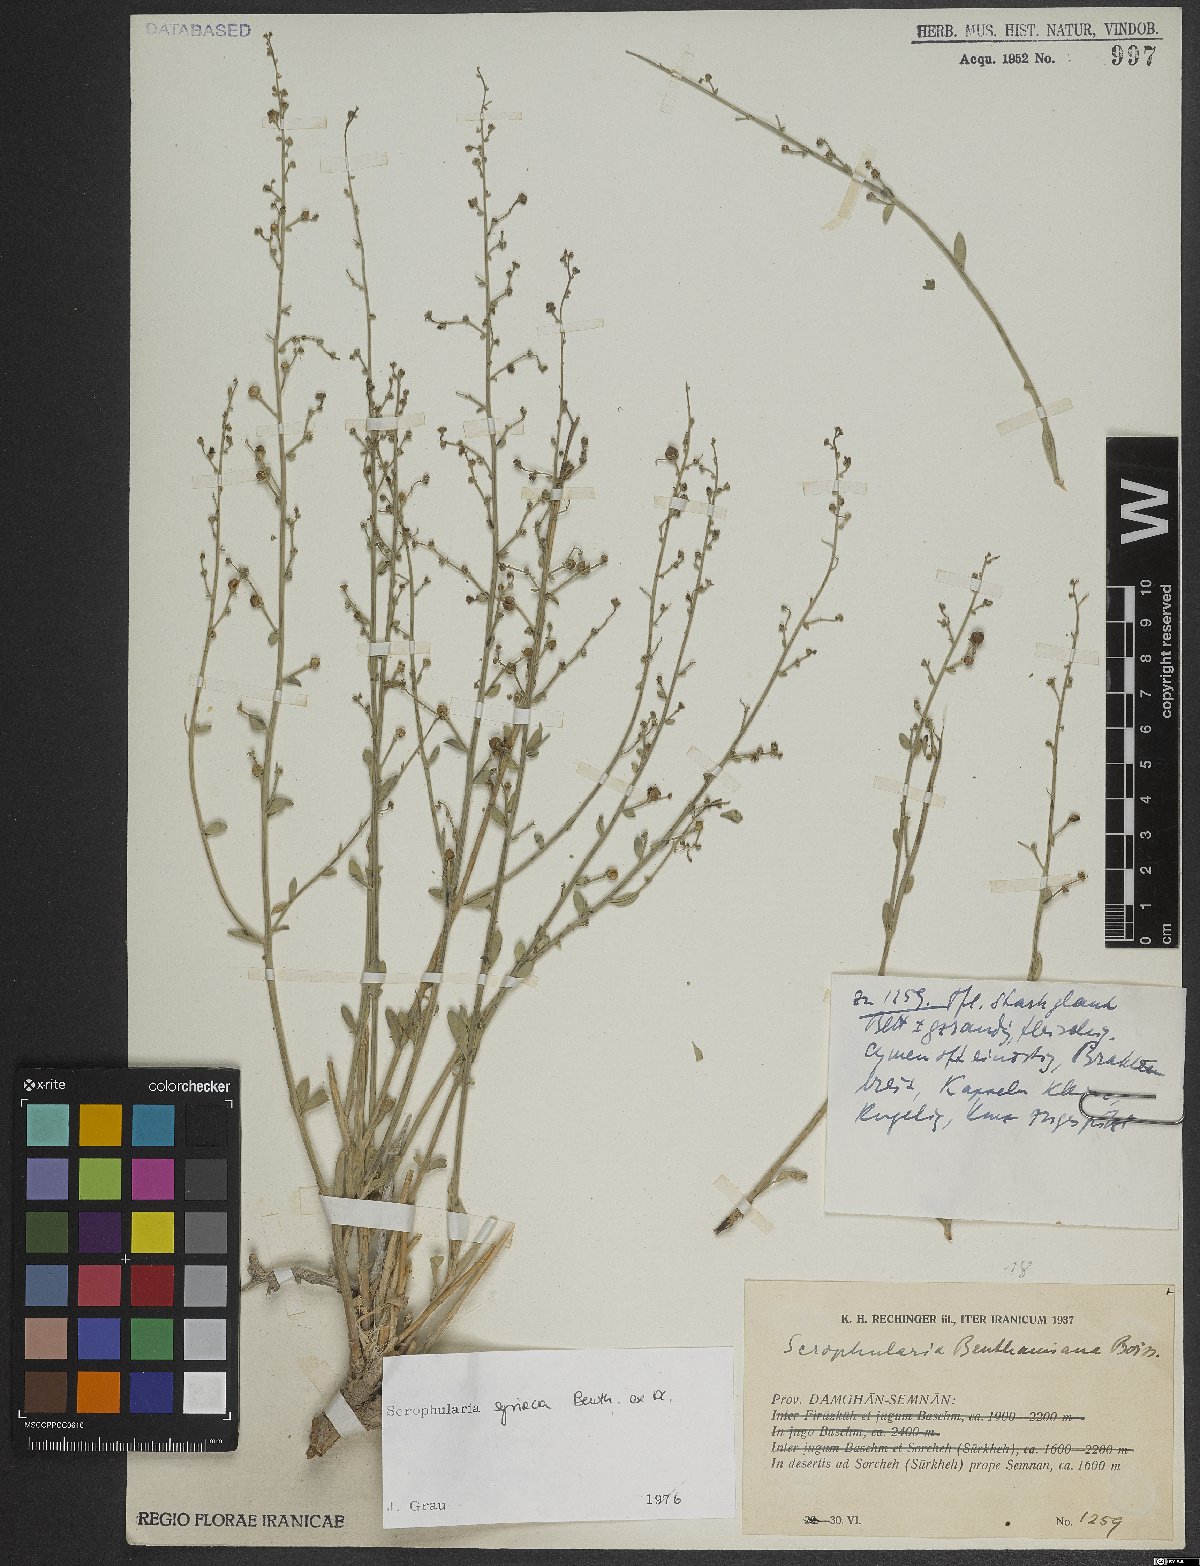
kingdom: Plantae
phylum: Tracheophyta
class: Magnoliopsida
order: Lamiales
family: Scrophulariaceae
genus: Scrophularia
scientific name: Scrophularia hypericifolia
